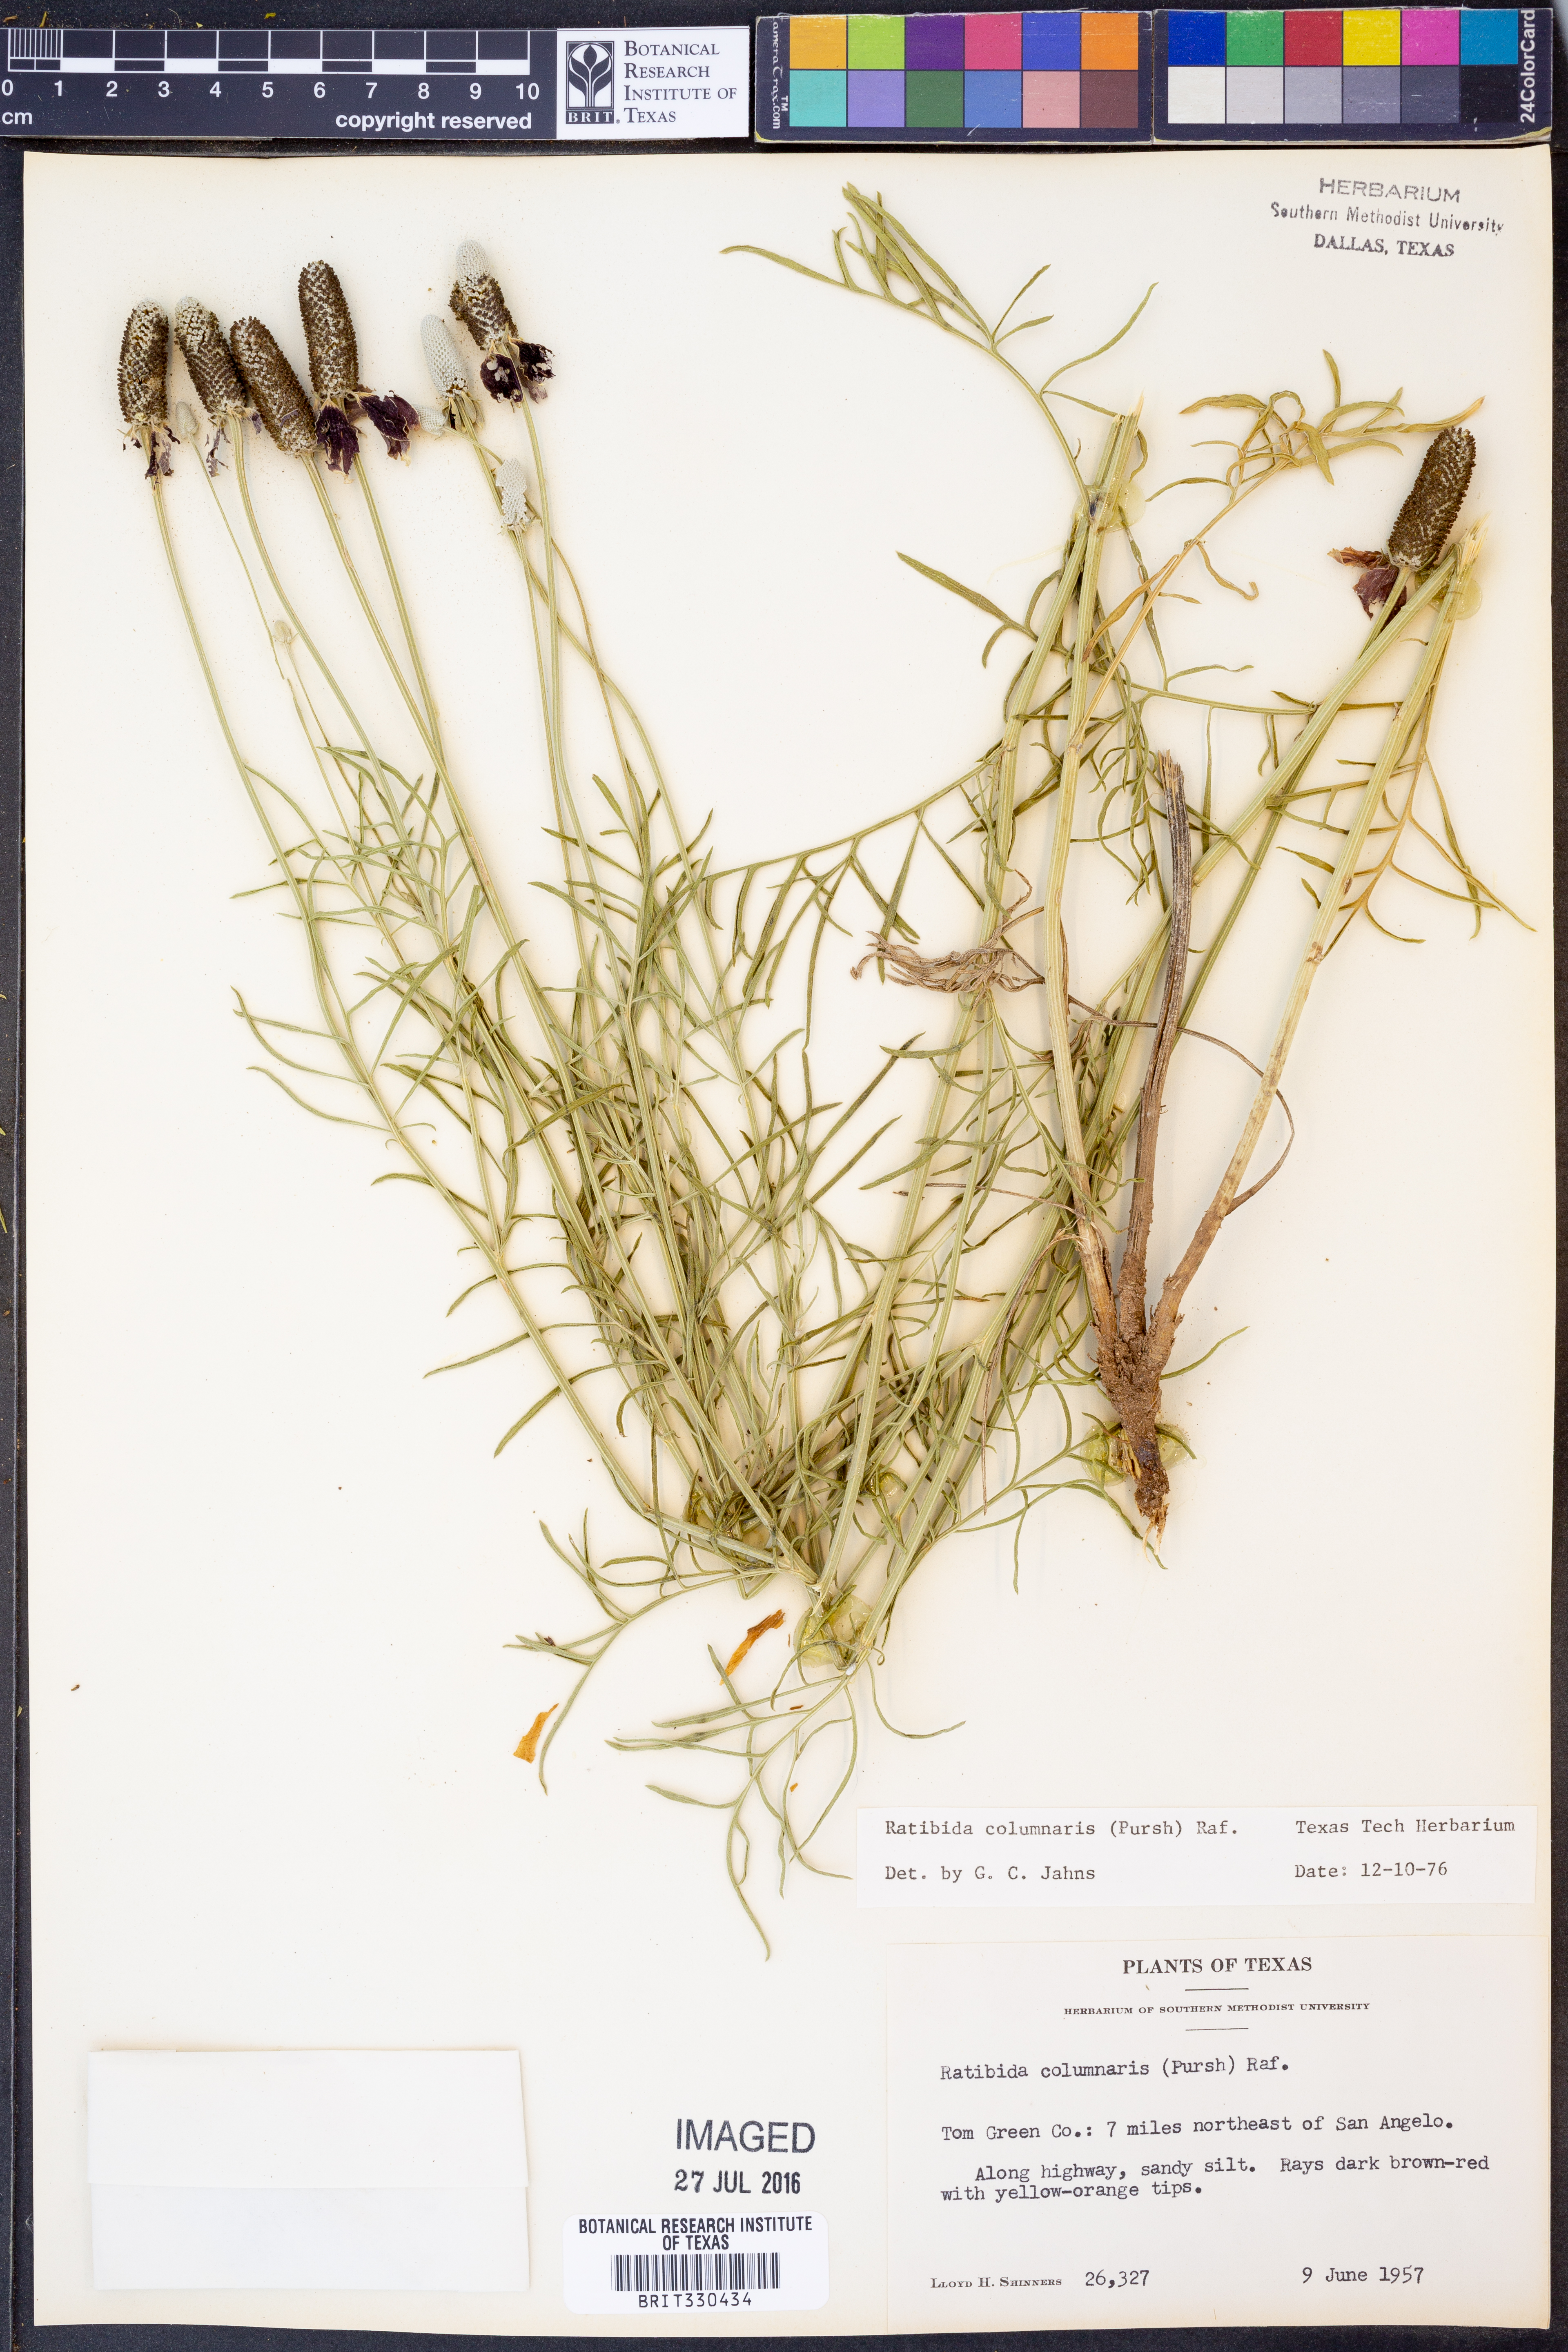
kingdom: Plantae
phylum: Tracheophyta
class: Magnoliopsida
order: Asterales
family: Asteraceae
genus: Ratibida
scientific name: Ratibida columnifera
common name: Prairie coneflower
